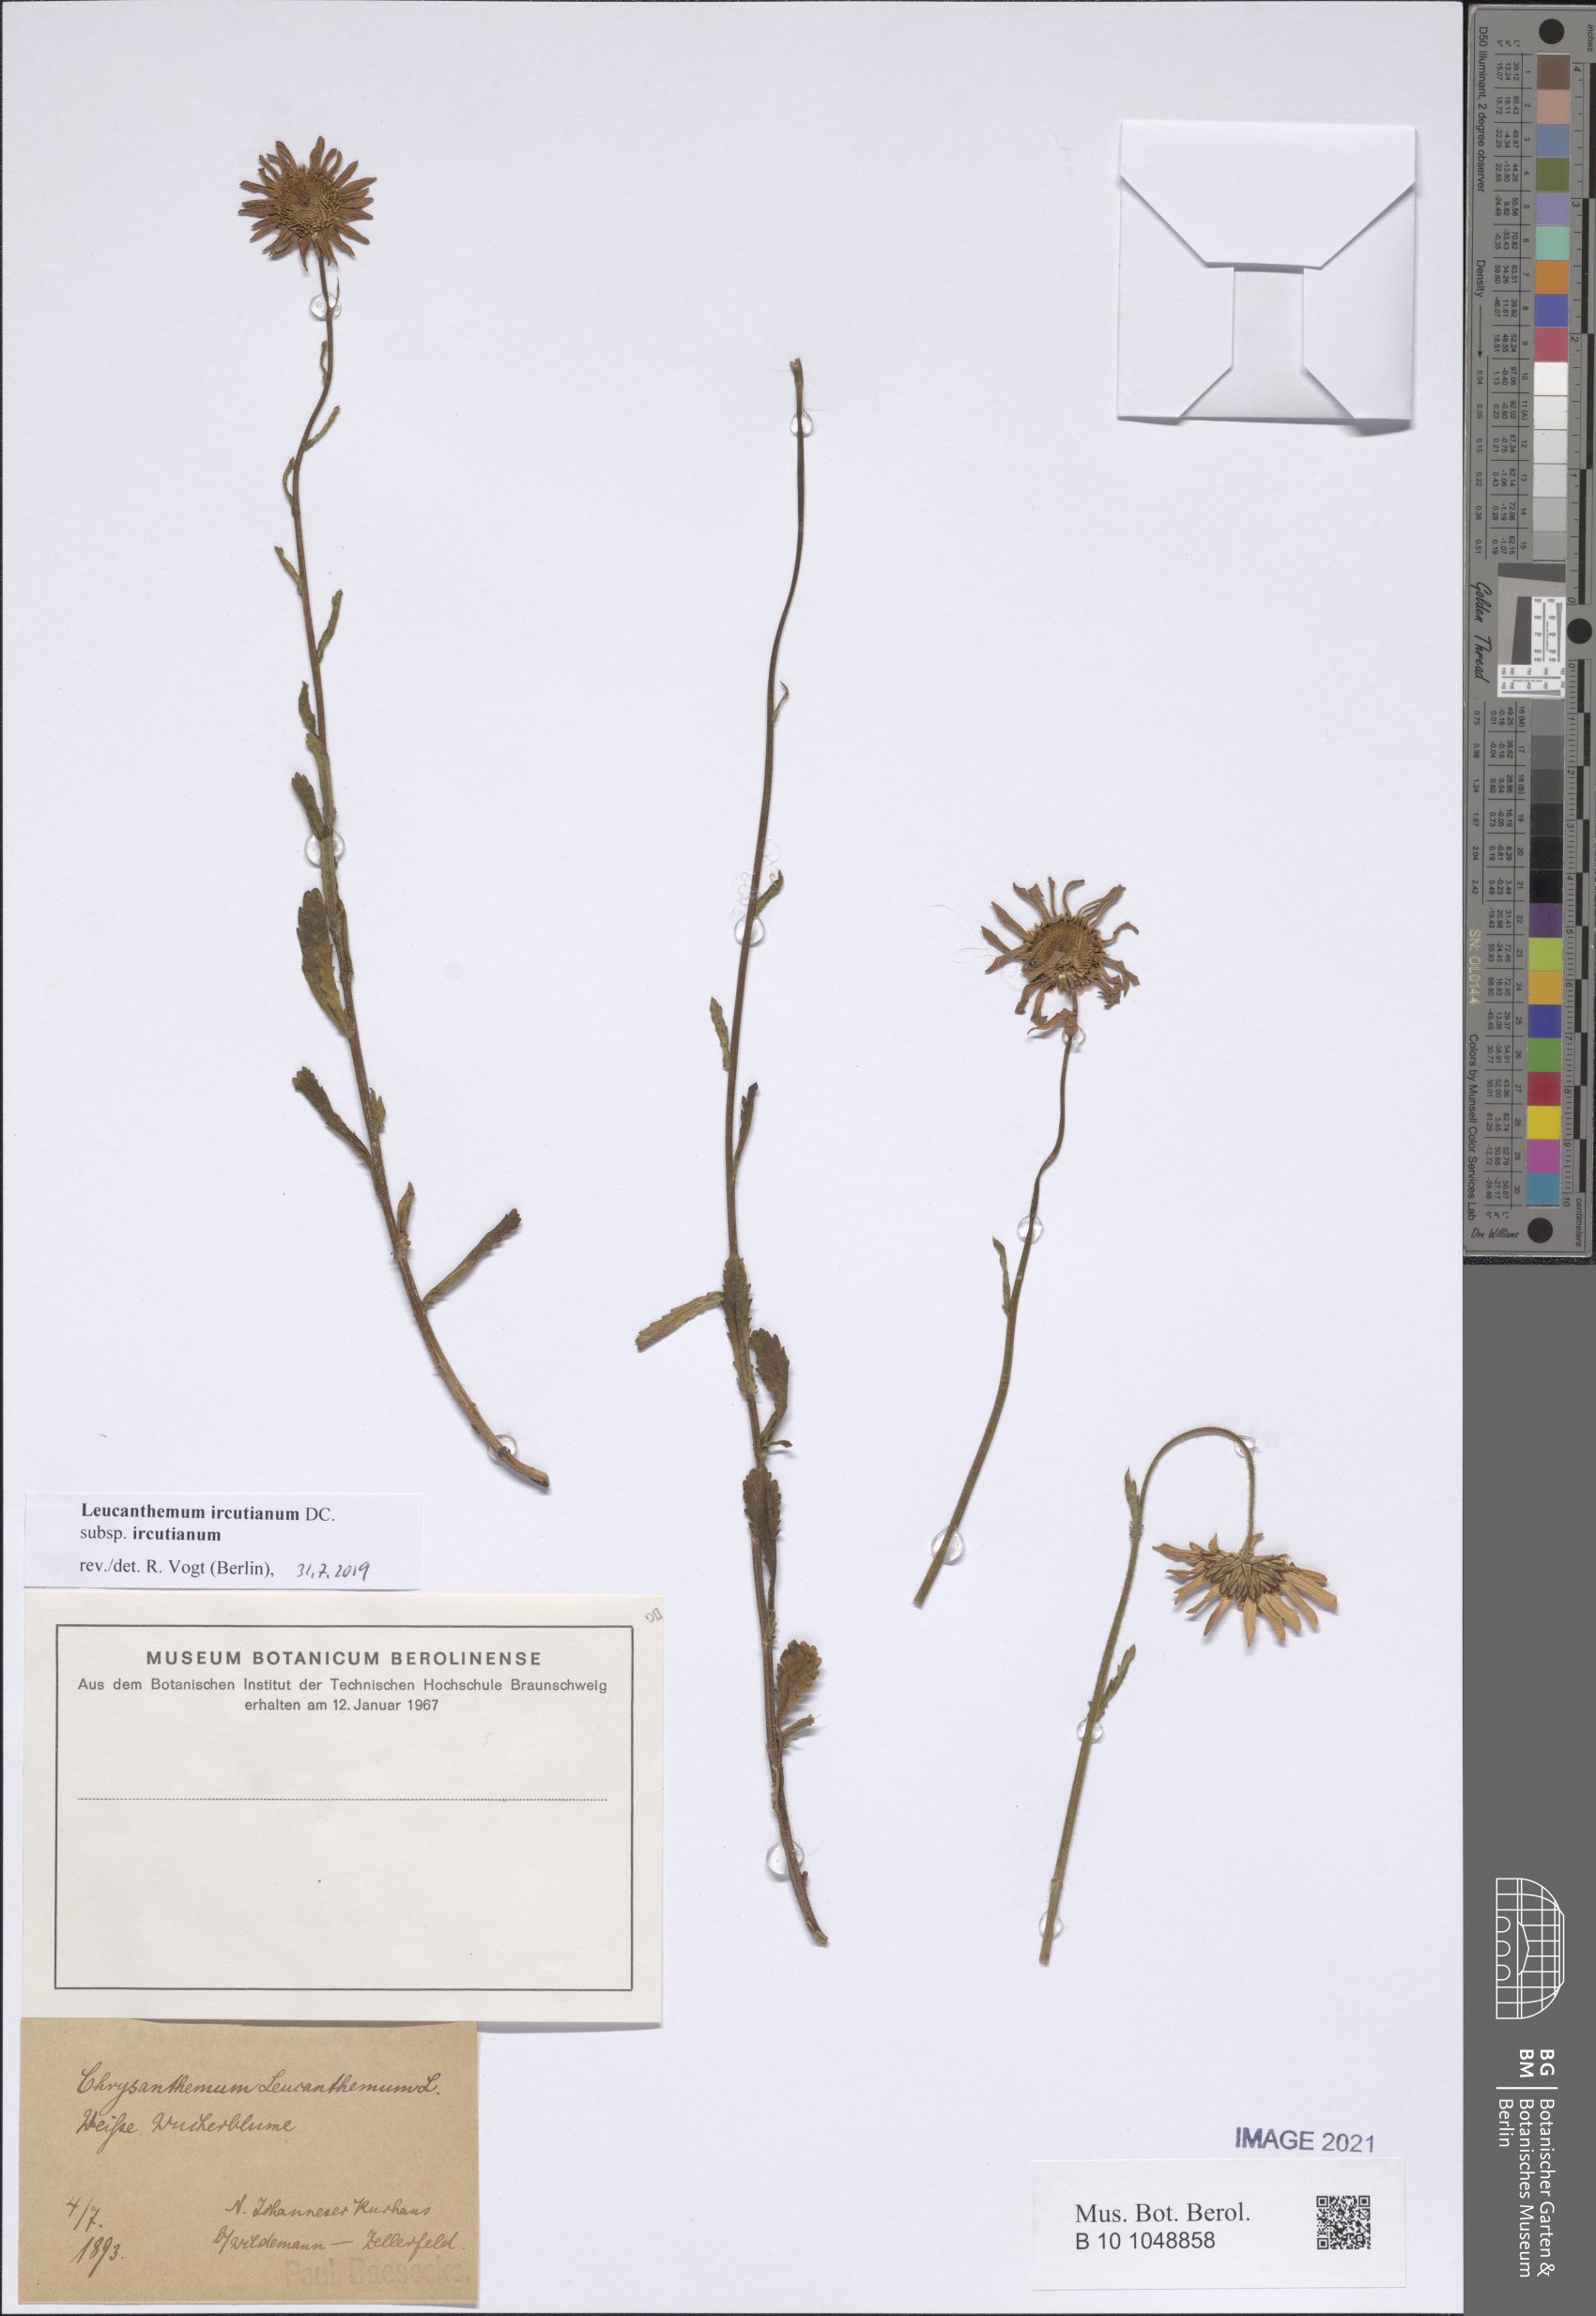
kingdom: Plantae
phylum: Tracheophyta
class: Magnoliopsida
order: Asterales
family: Asteraceae
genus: Leucanthemum
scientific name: Leucanthemum ircutianum
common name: Daisy
